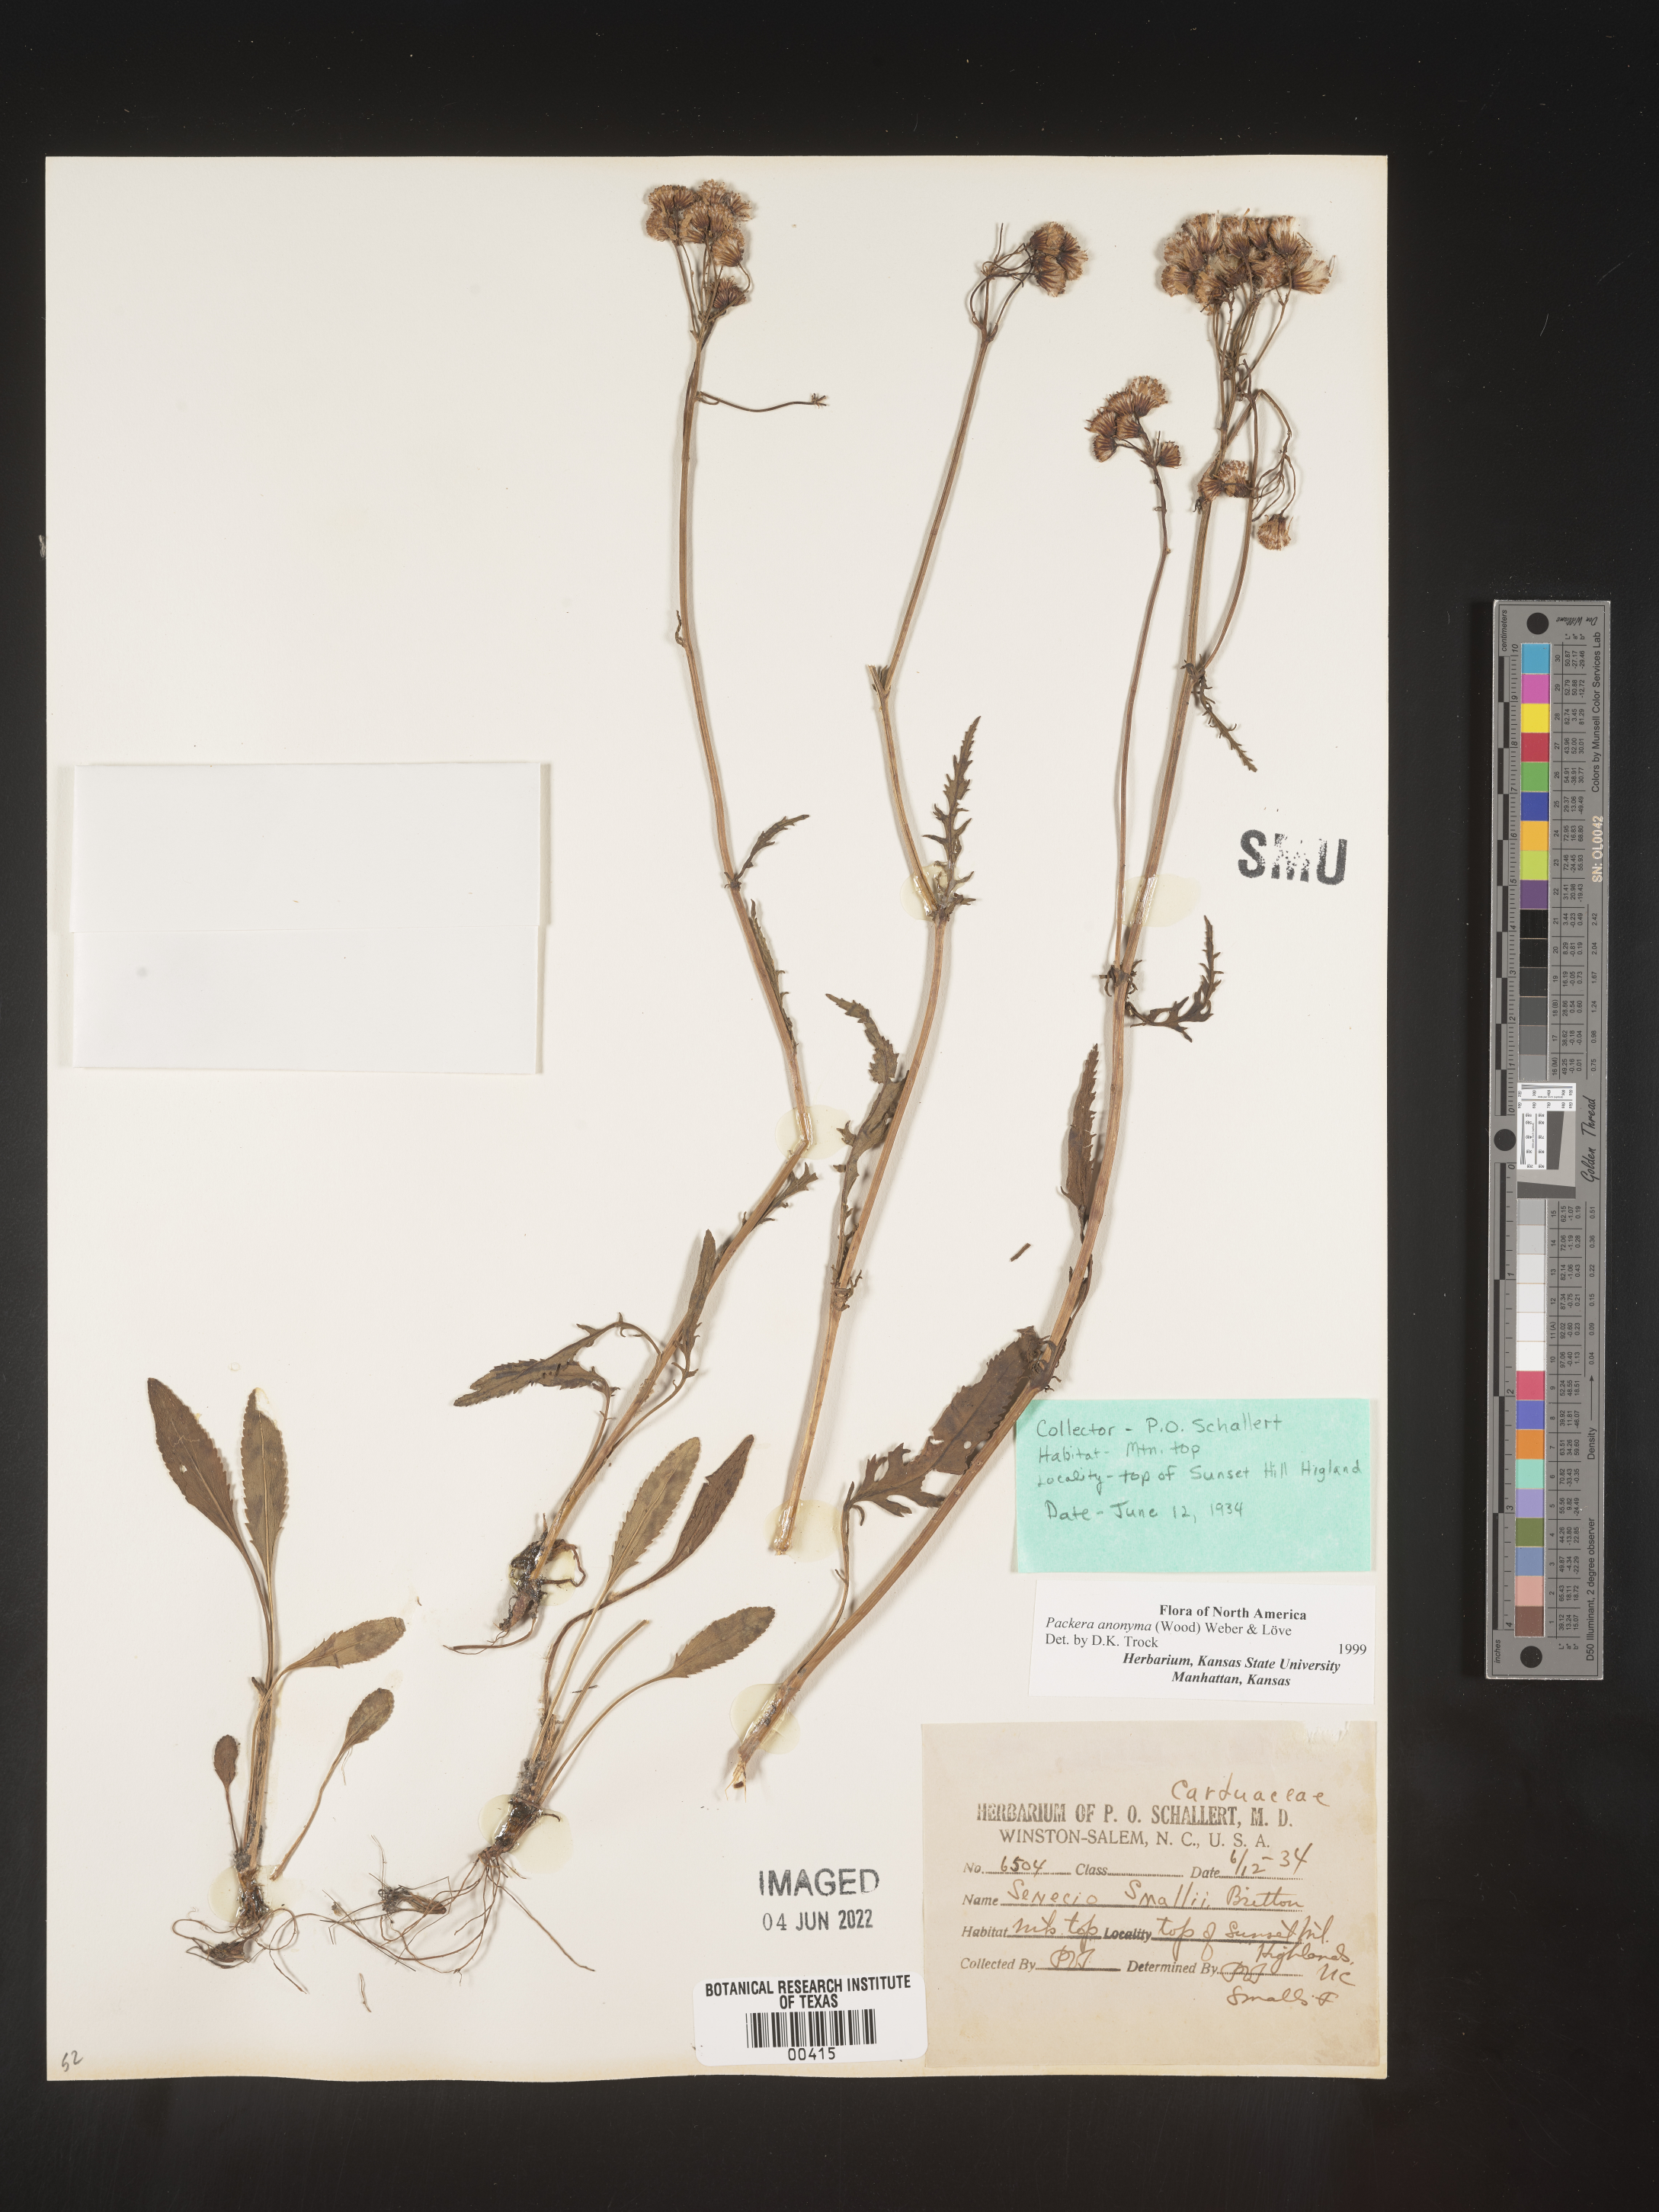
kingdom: Plantae
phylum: Tracheophyta
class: Magnoliopsida
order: Asterales
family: Asteraceae
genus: Packera
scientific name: Packera anonyma
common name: Small ragwort
